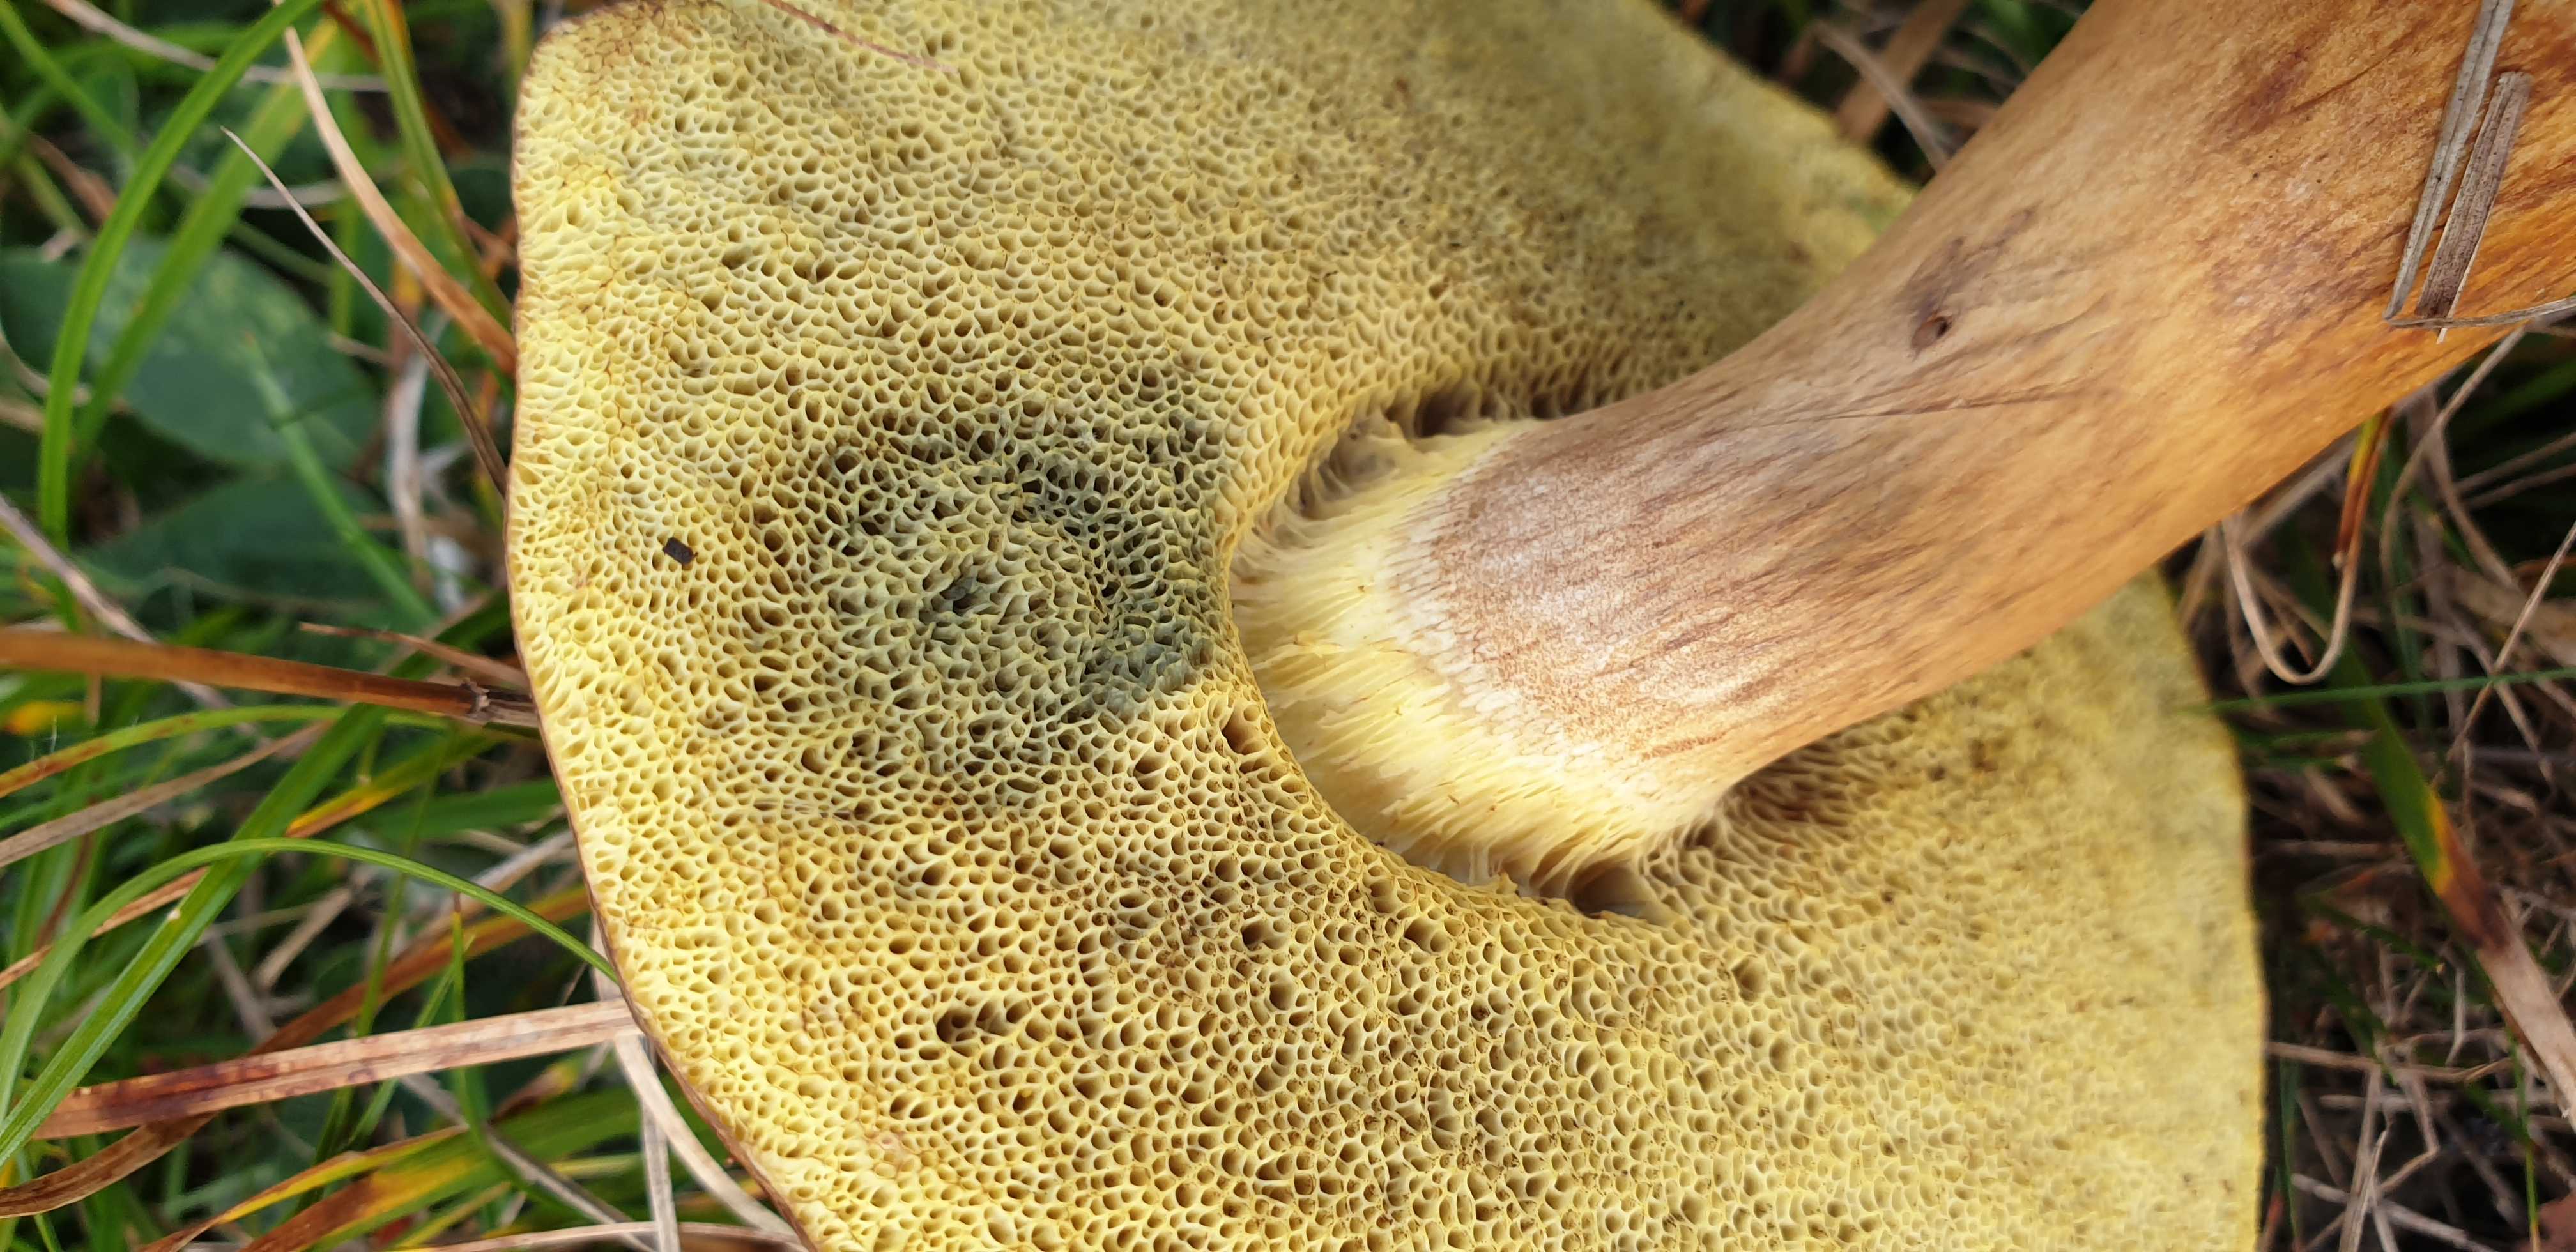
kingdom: Fungi
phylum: Basidiomycota
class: Agaricomycetes
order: Boletales
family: Boletaceae
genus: Imleria
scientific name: Imleria badia
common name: brunstokket rørhat
